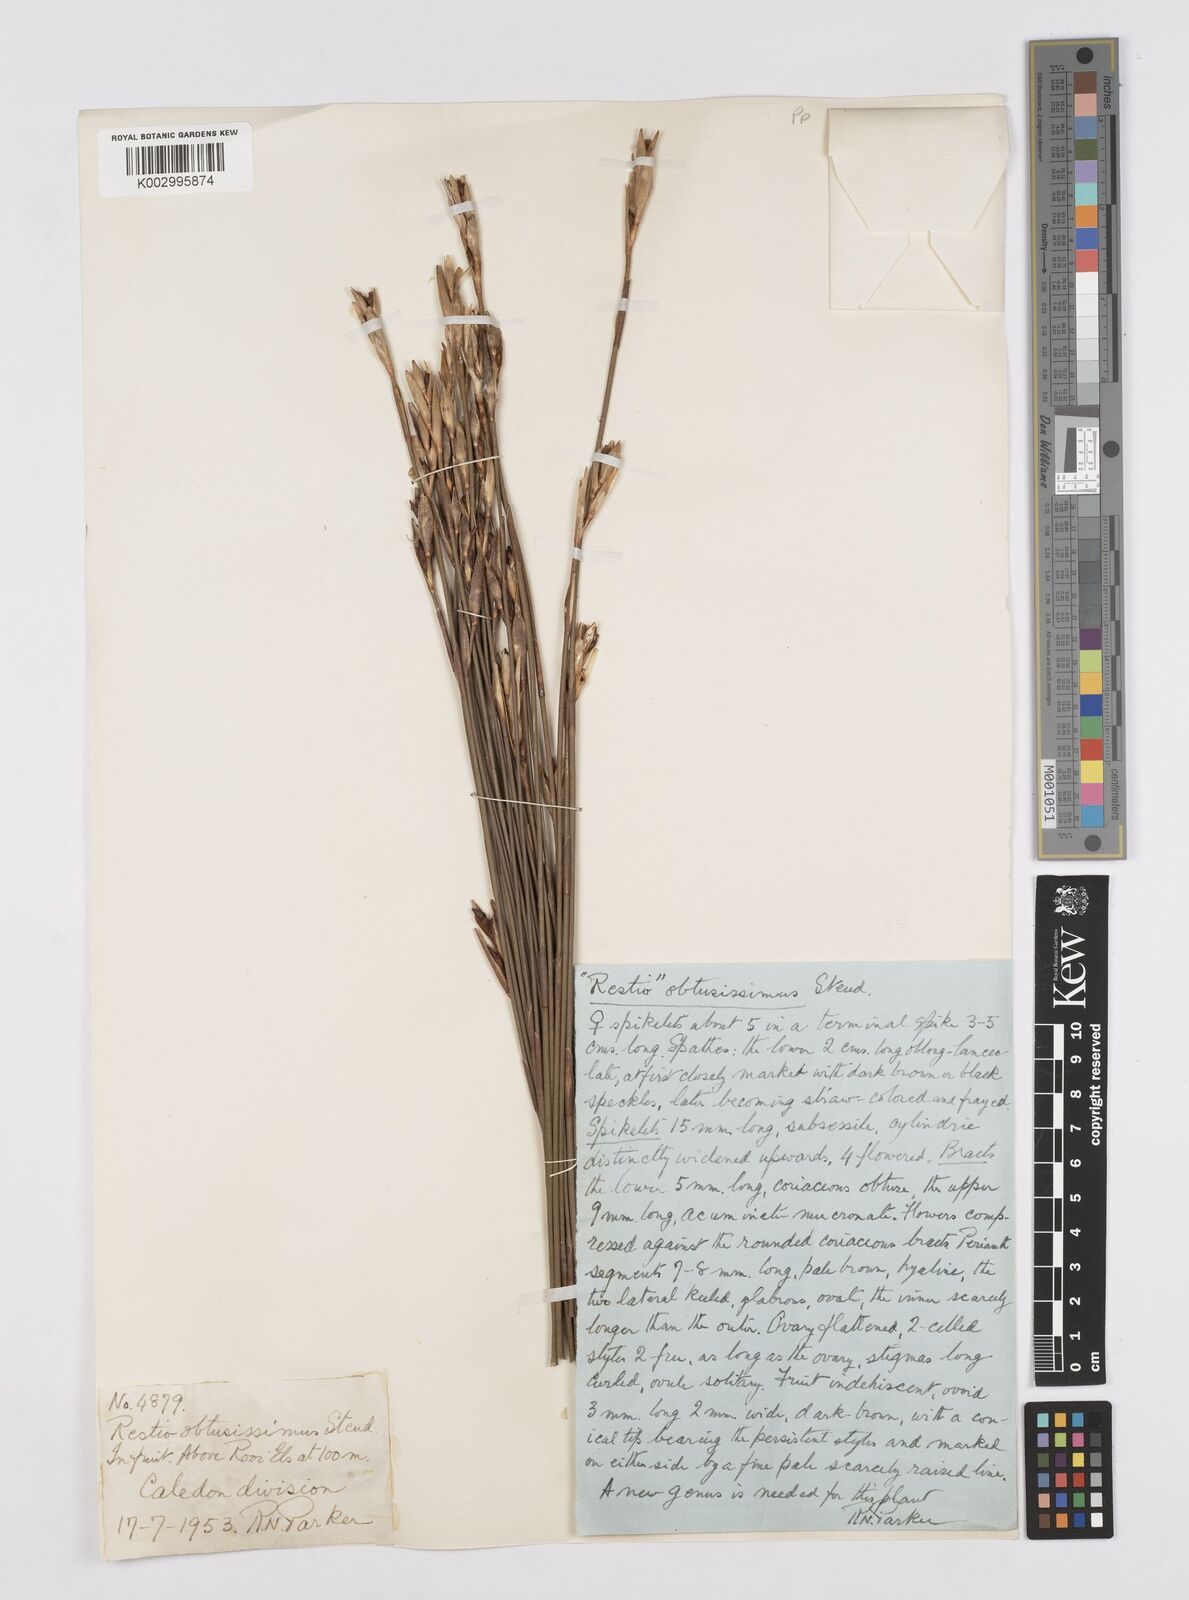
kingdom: Plantae
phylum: Tracheophyta
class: Liliopsida
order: Poales
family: Restionaceae
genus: Nevillea
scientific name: Nevillea obtusissimus
